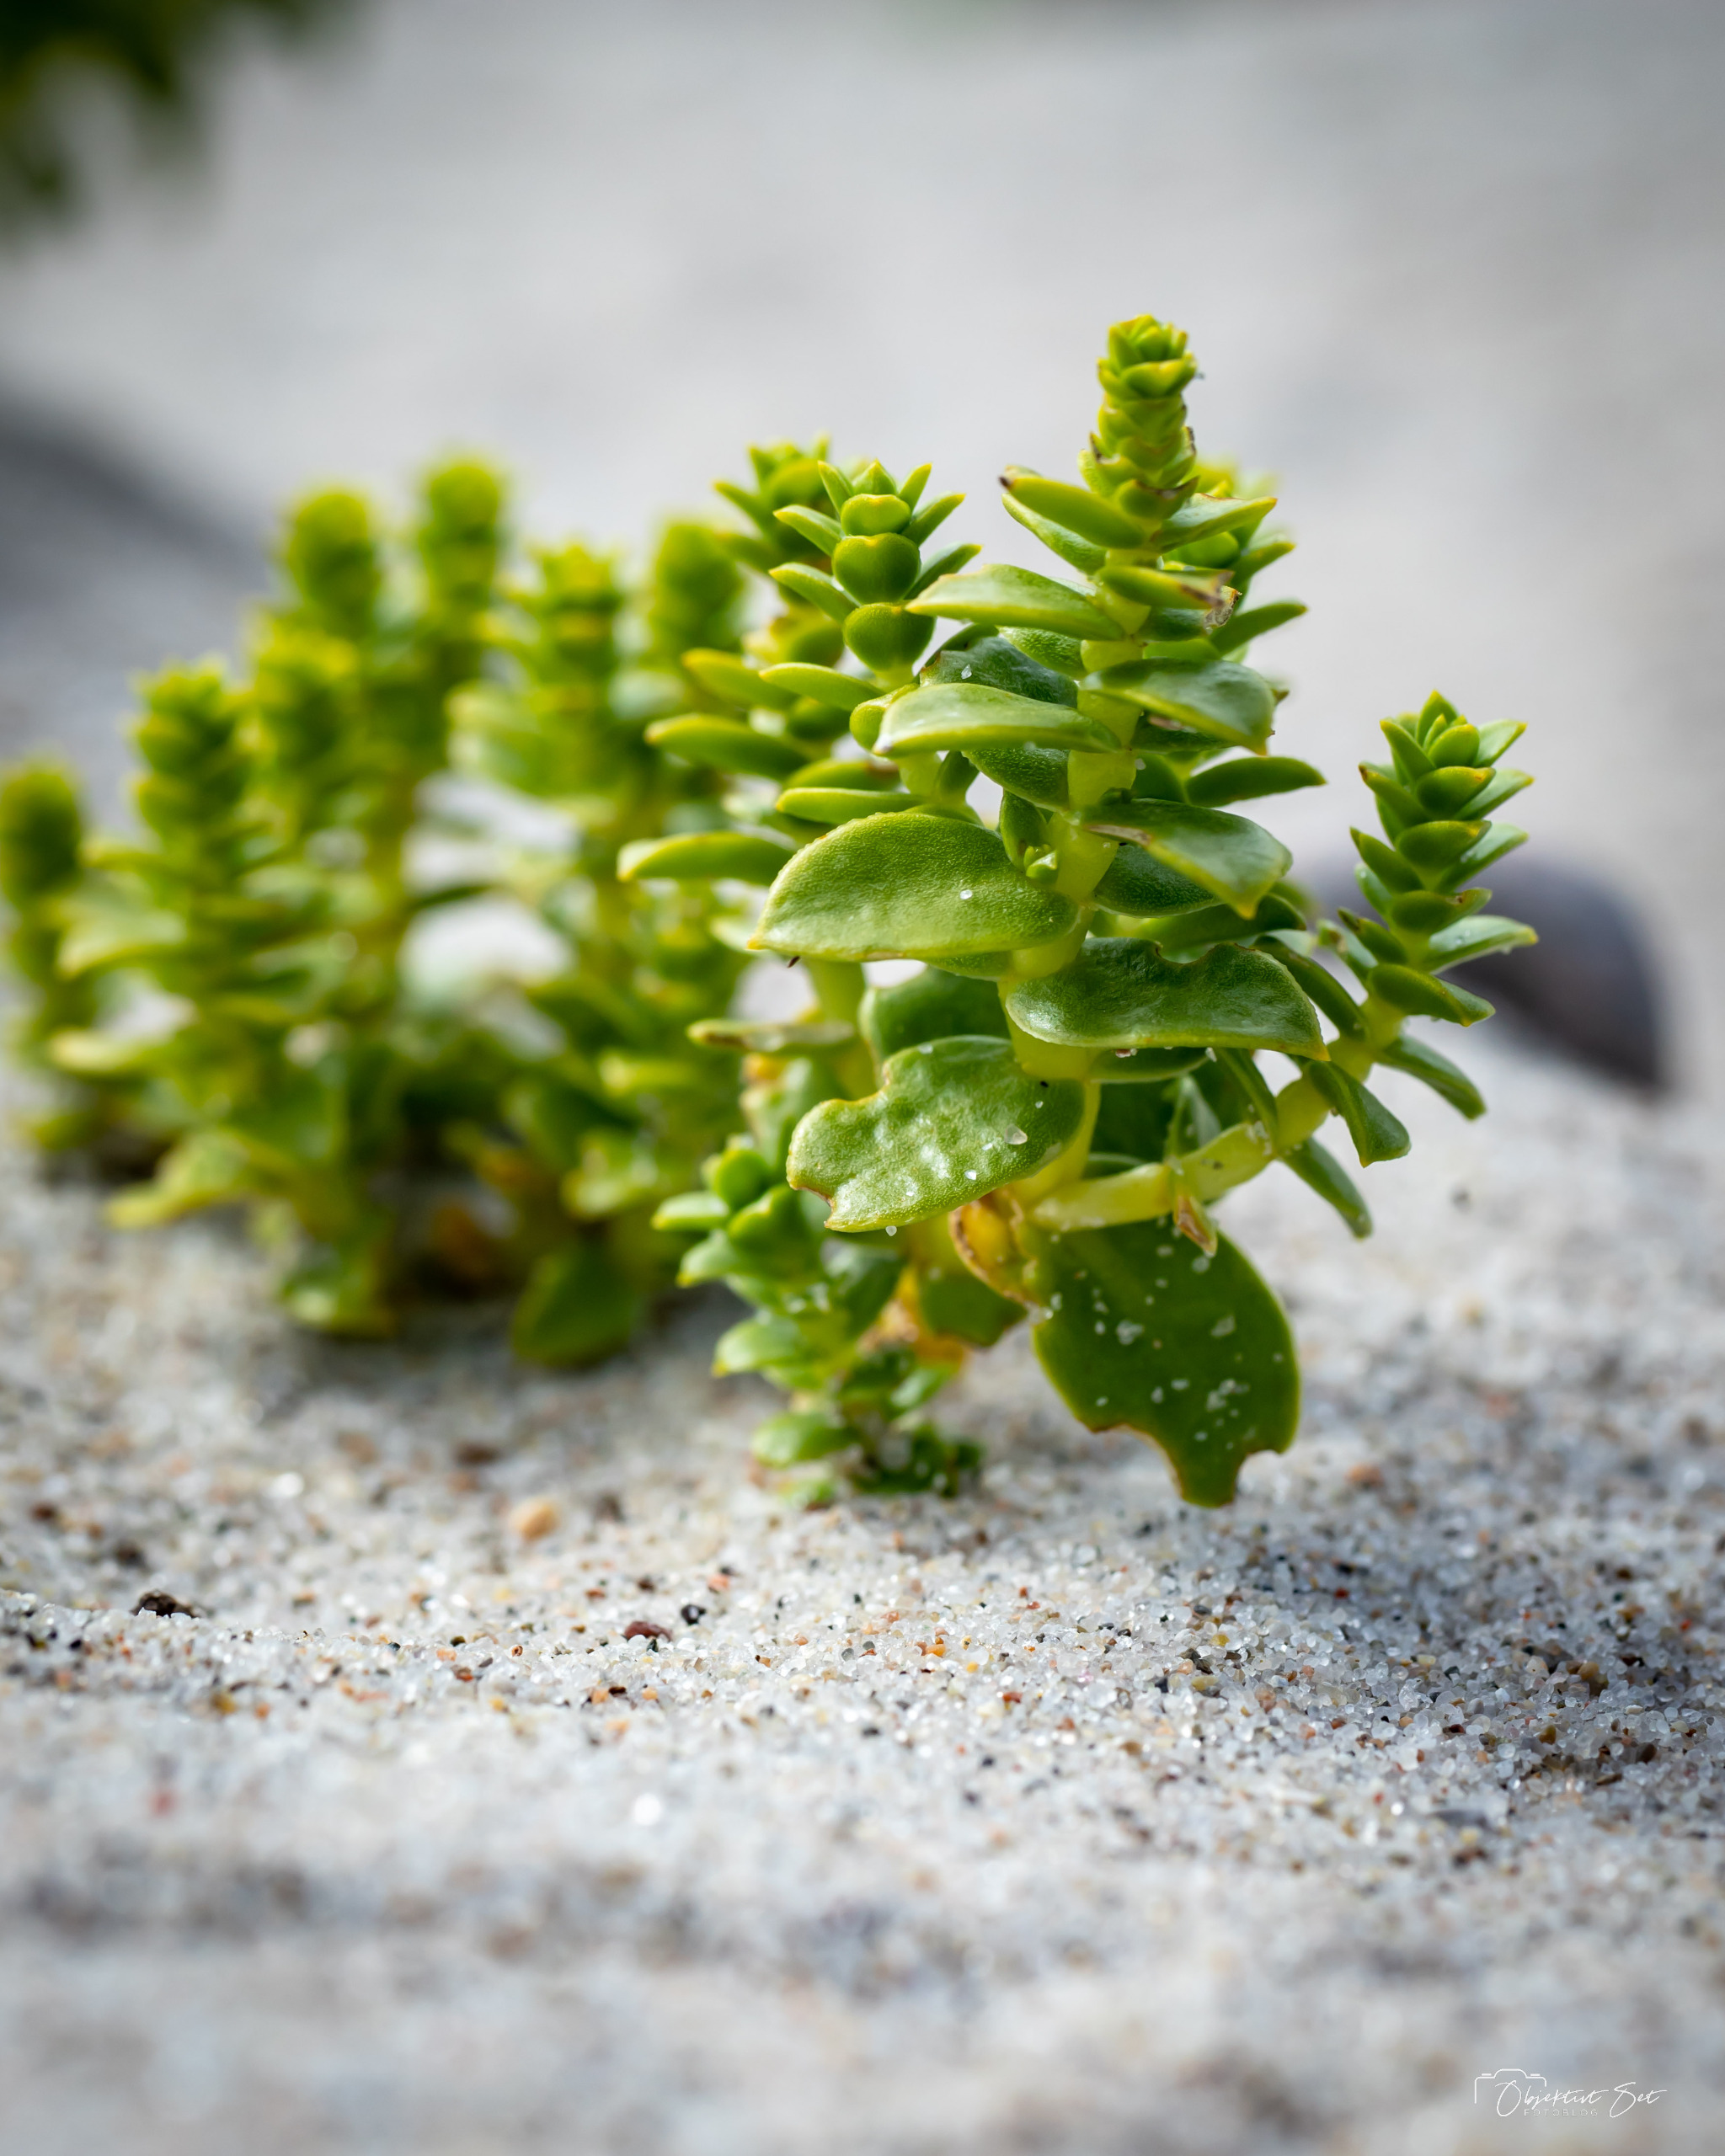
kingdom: Plantae
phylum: Tracheophyta
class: Magnoliopsida
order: Caryophyllales
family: Caryophyllaceae
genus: Honckenya
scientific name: Honckenya peploides
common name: Strandarve
